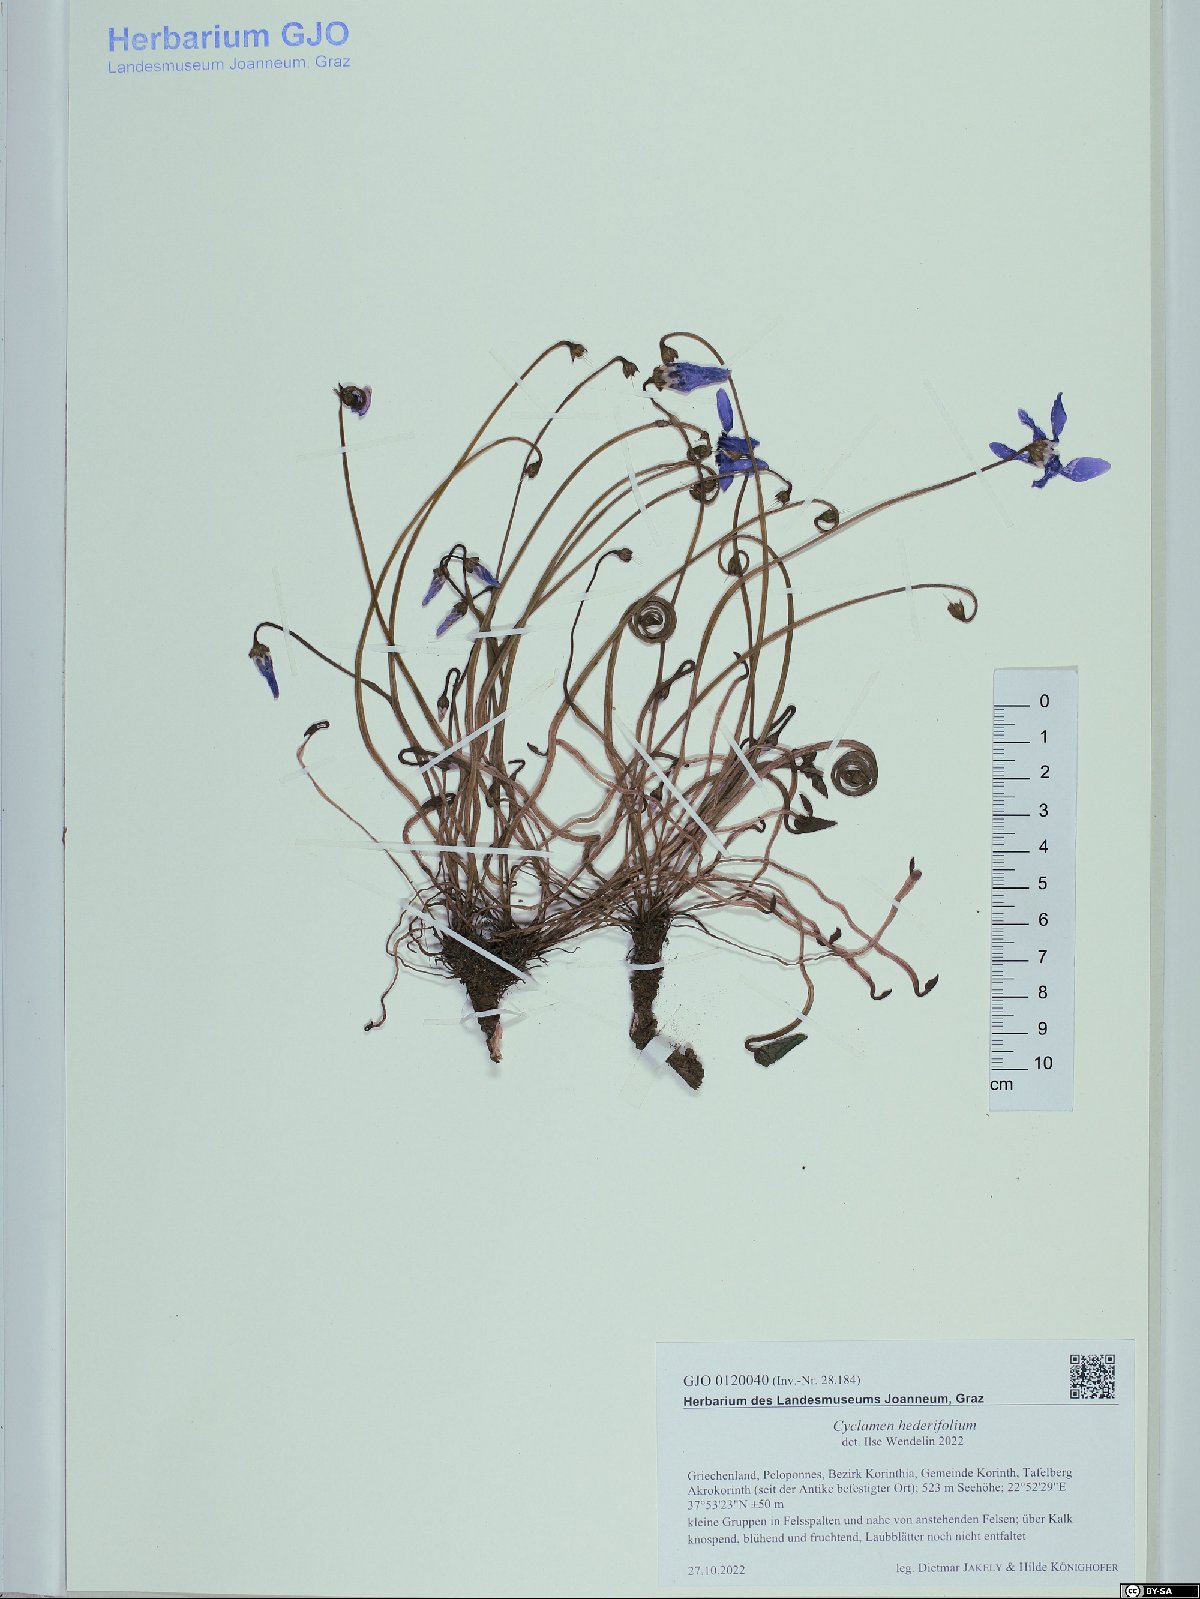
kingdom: Plantae
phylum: Tracheophyta
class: Magnoliopsida
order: Ericales
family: Primulaceae
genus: Cyclamen
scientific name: Cyclamen hederifolium
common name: Sowbread
